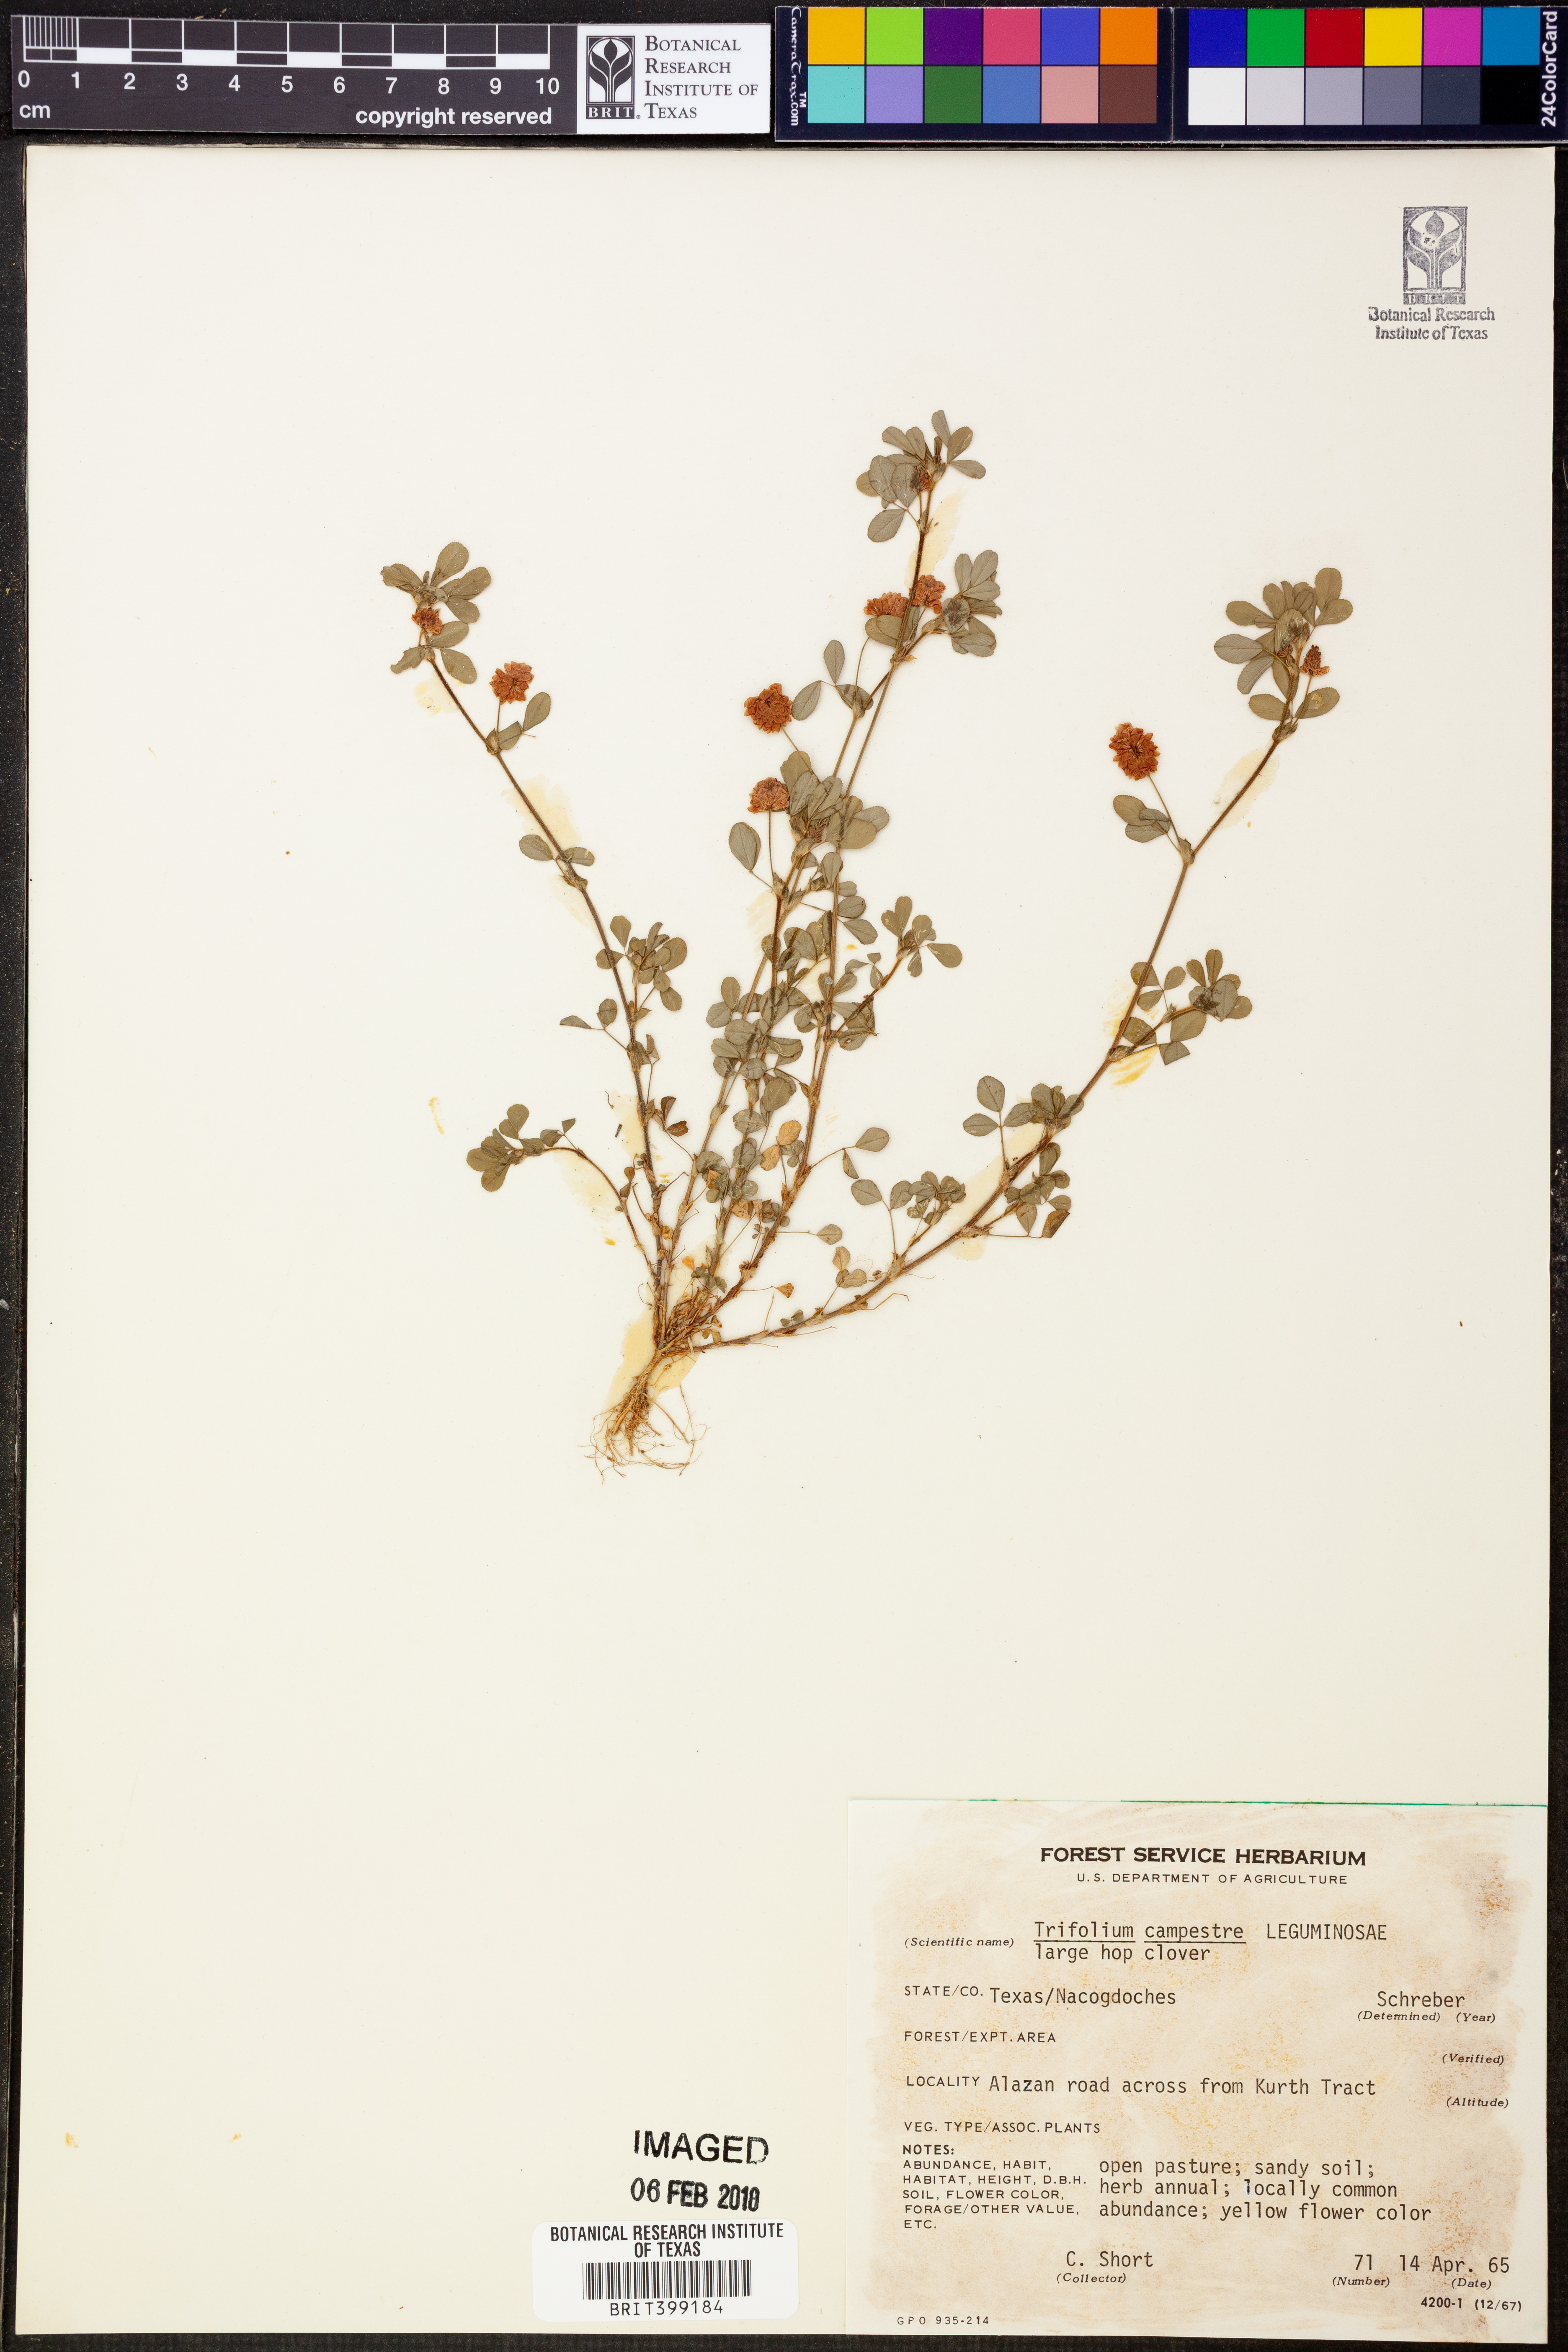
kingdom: Plantae
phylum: Tracheophyta
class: Magnoliopsida
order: Fabales
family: Fabaceae
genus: Trifolium
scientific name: Trifolium campestre
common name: Field clover
